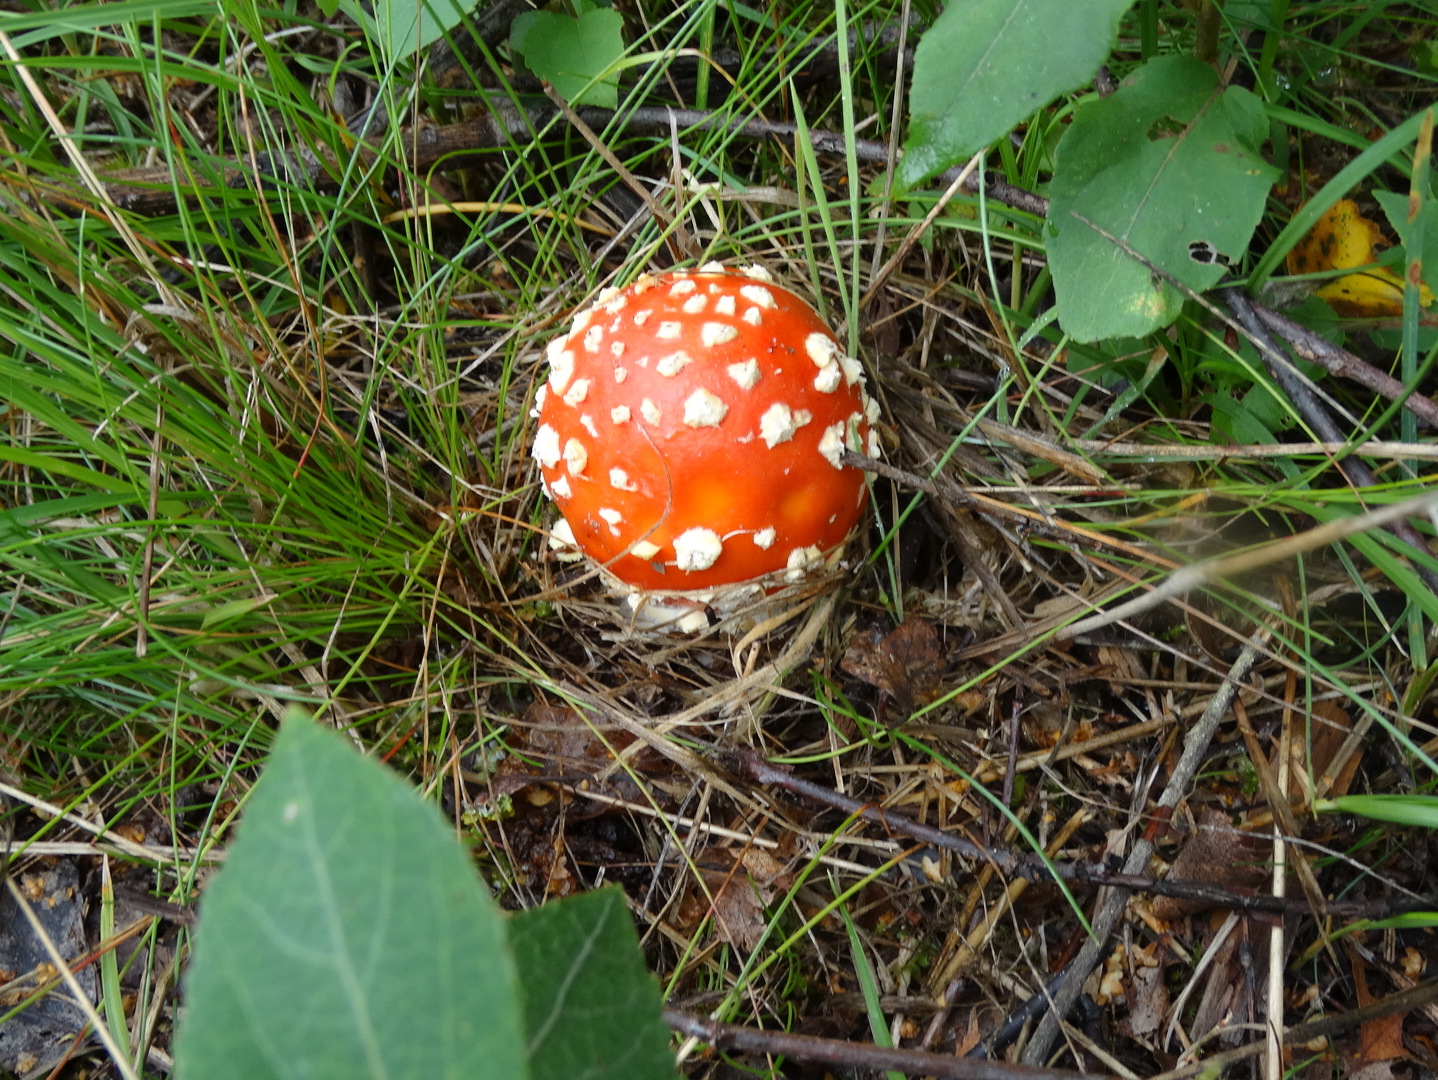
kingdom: Fungi
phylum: Basidiomycota
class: Agaricomycetes
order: Agaricales
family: Amanitaceae
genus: Amanita
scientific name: Amanita muscaria
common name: rød fluesvamp
